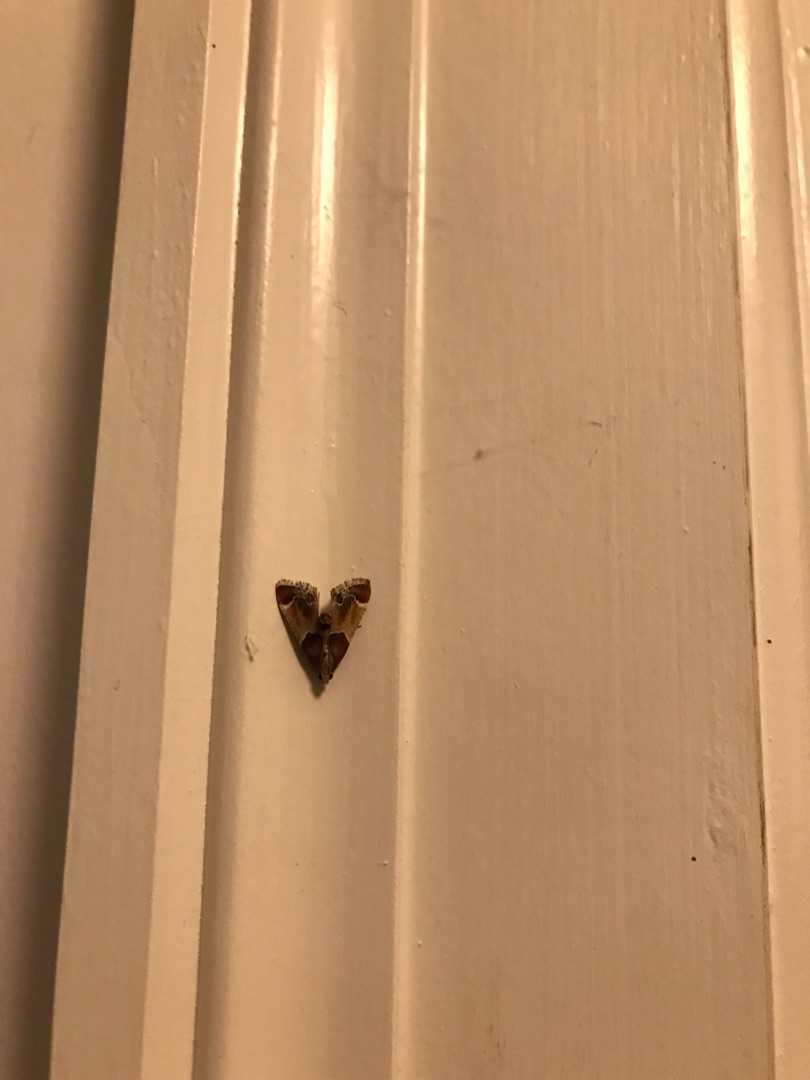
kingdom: Animalia
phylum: Arthropoda
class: Insecta
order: Lepidoptera
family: Pyralidae
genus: Pyralis
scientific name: Pyralis farinalis
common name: Stort melmøl
